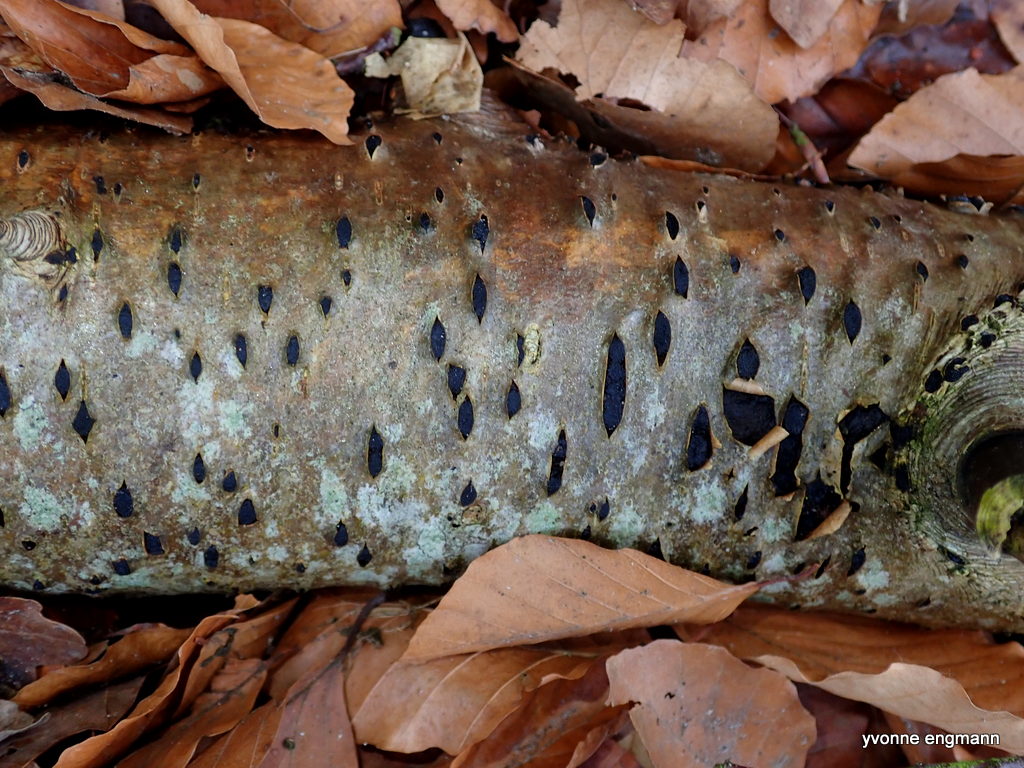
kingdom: Fungi
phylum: Ascomycota
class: Sordariomycetes
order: Xylariales
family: Hypoxylaceae
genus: Jackrogersella
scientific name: Jackrogersella multiformis
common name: foranderlig kulbær
